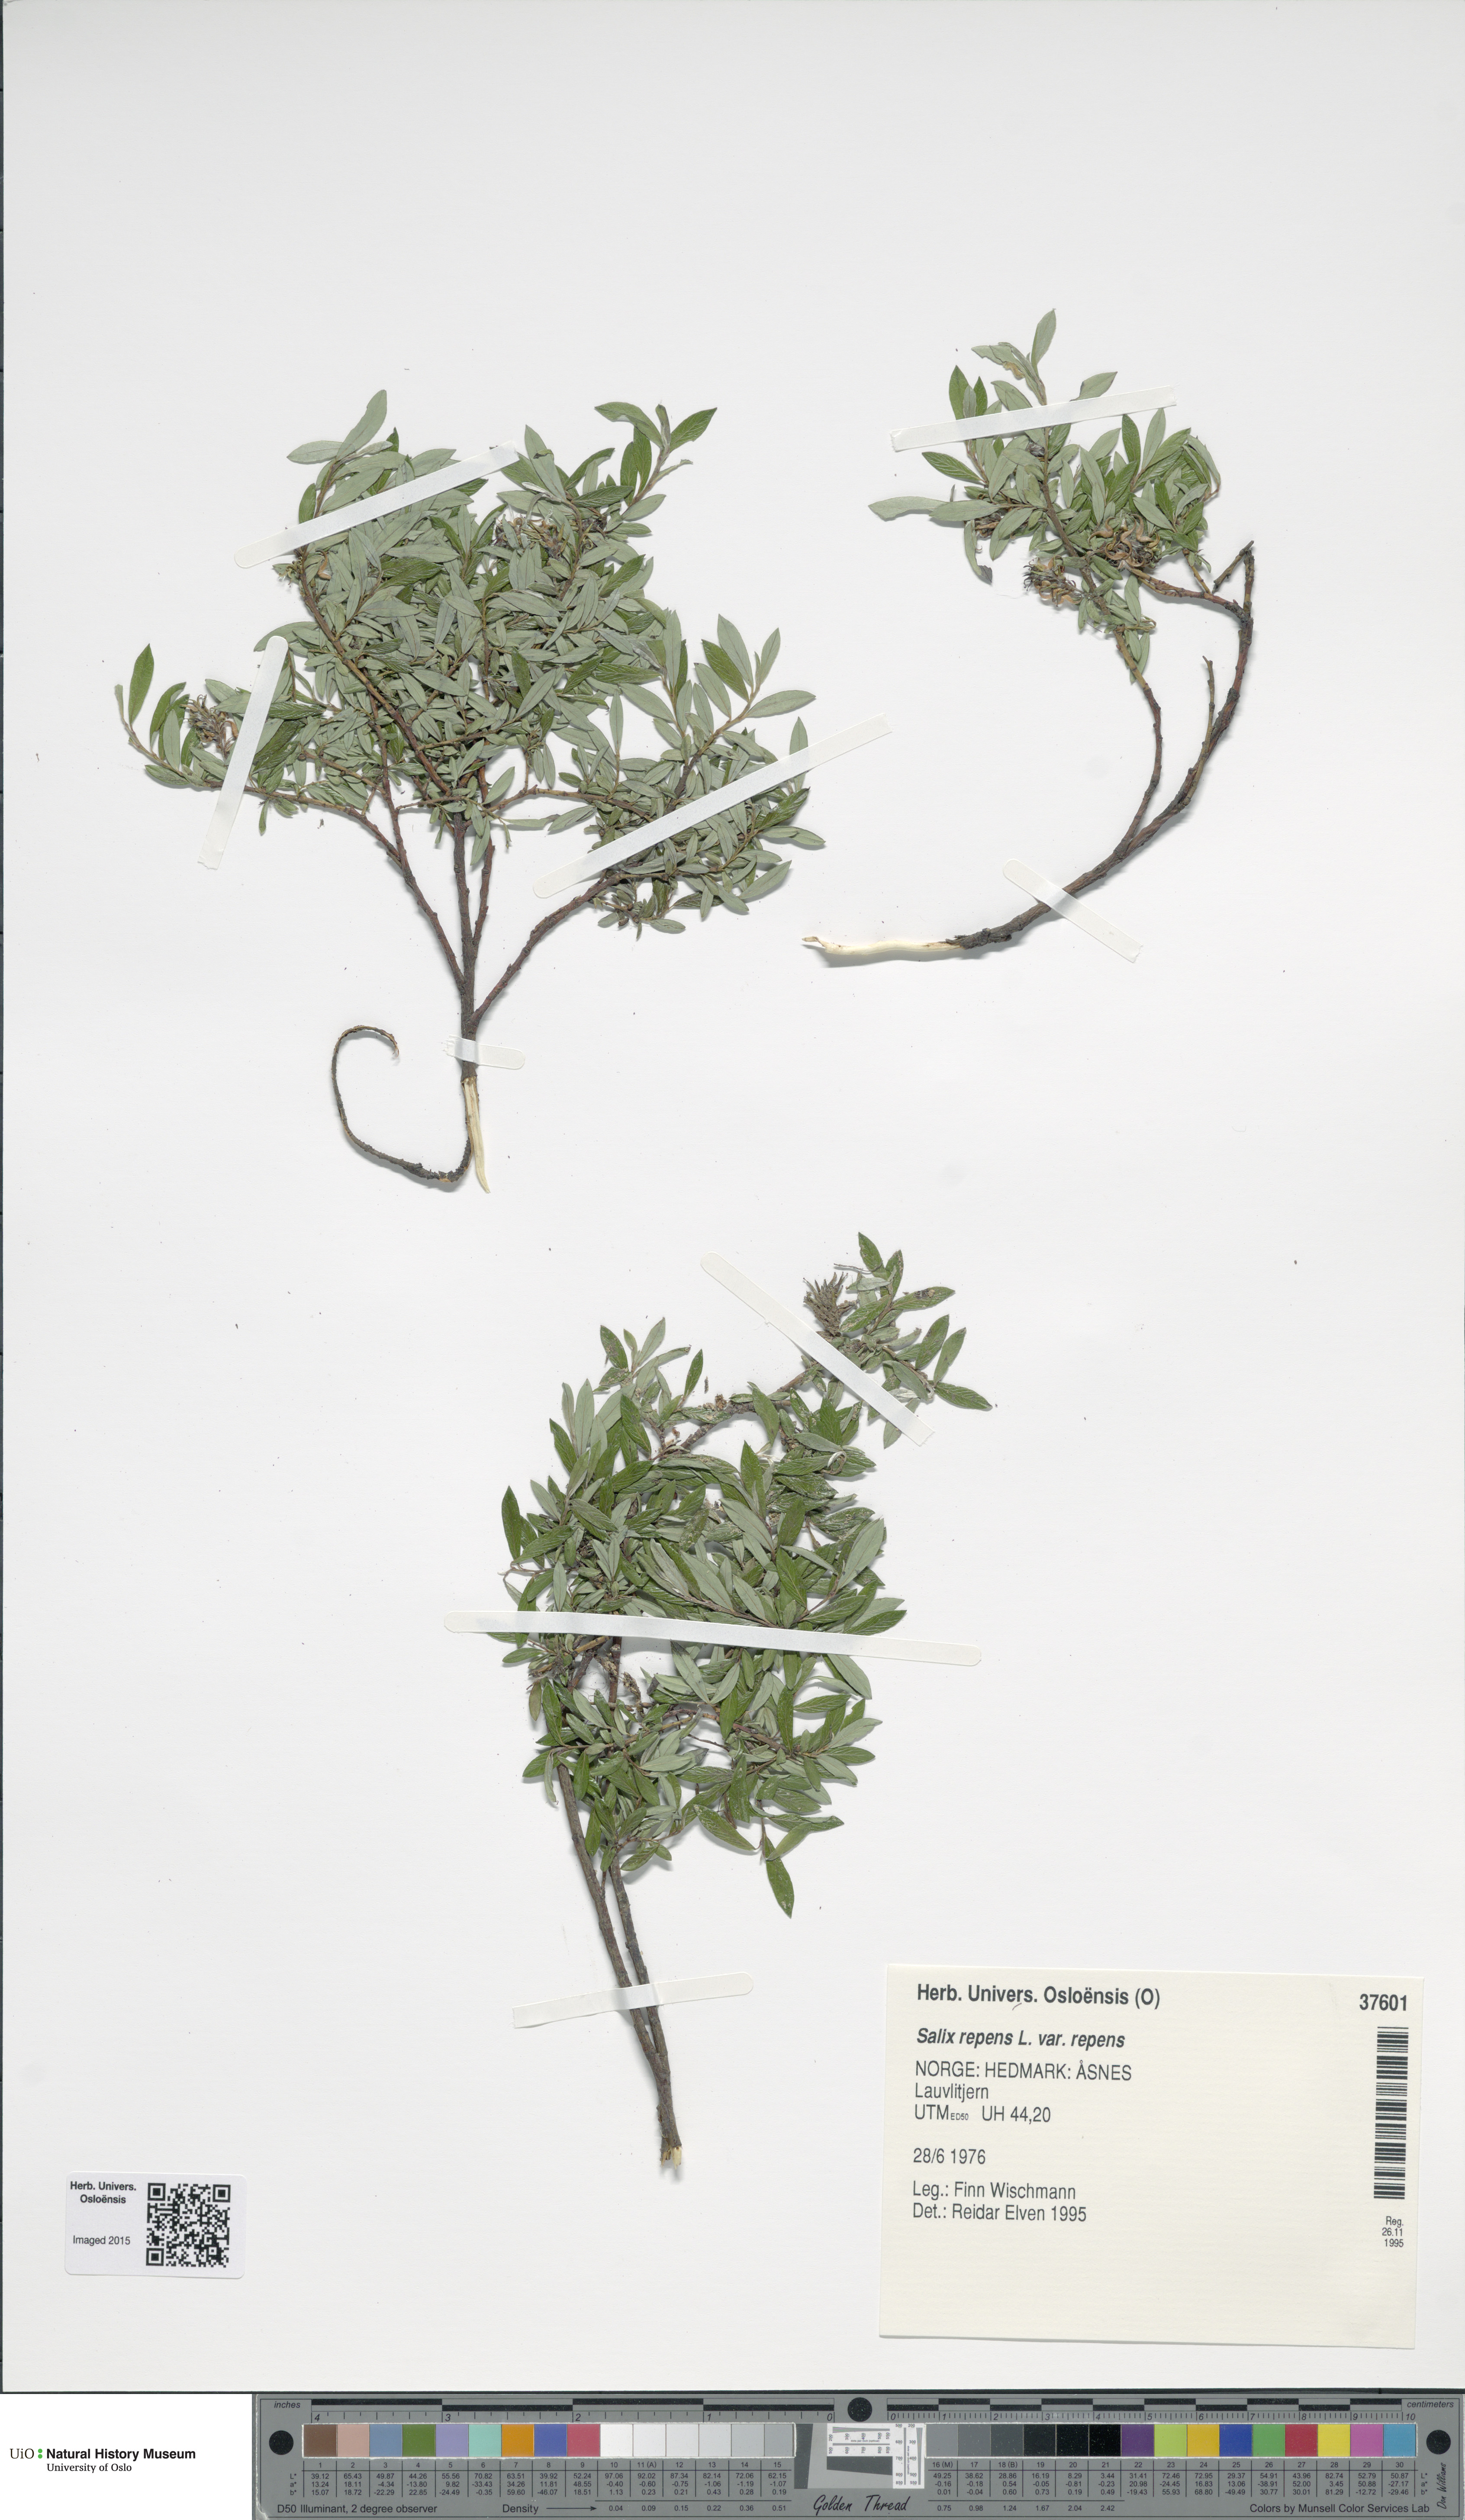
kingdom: Plantae
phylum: Tracheophyta
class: Magnoliopsida
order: Malpighiales
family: Salicaceae
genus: Salix
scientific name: Salix repens
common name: Creeping willow
